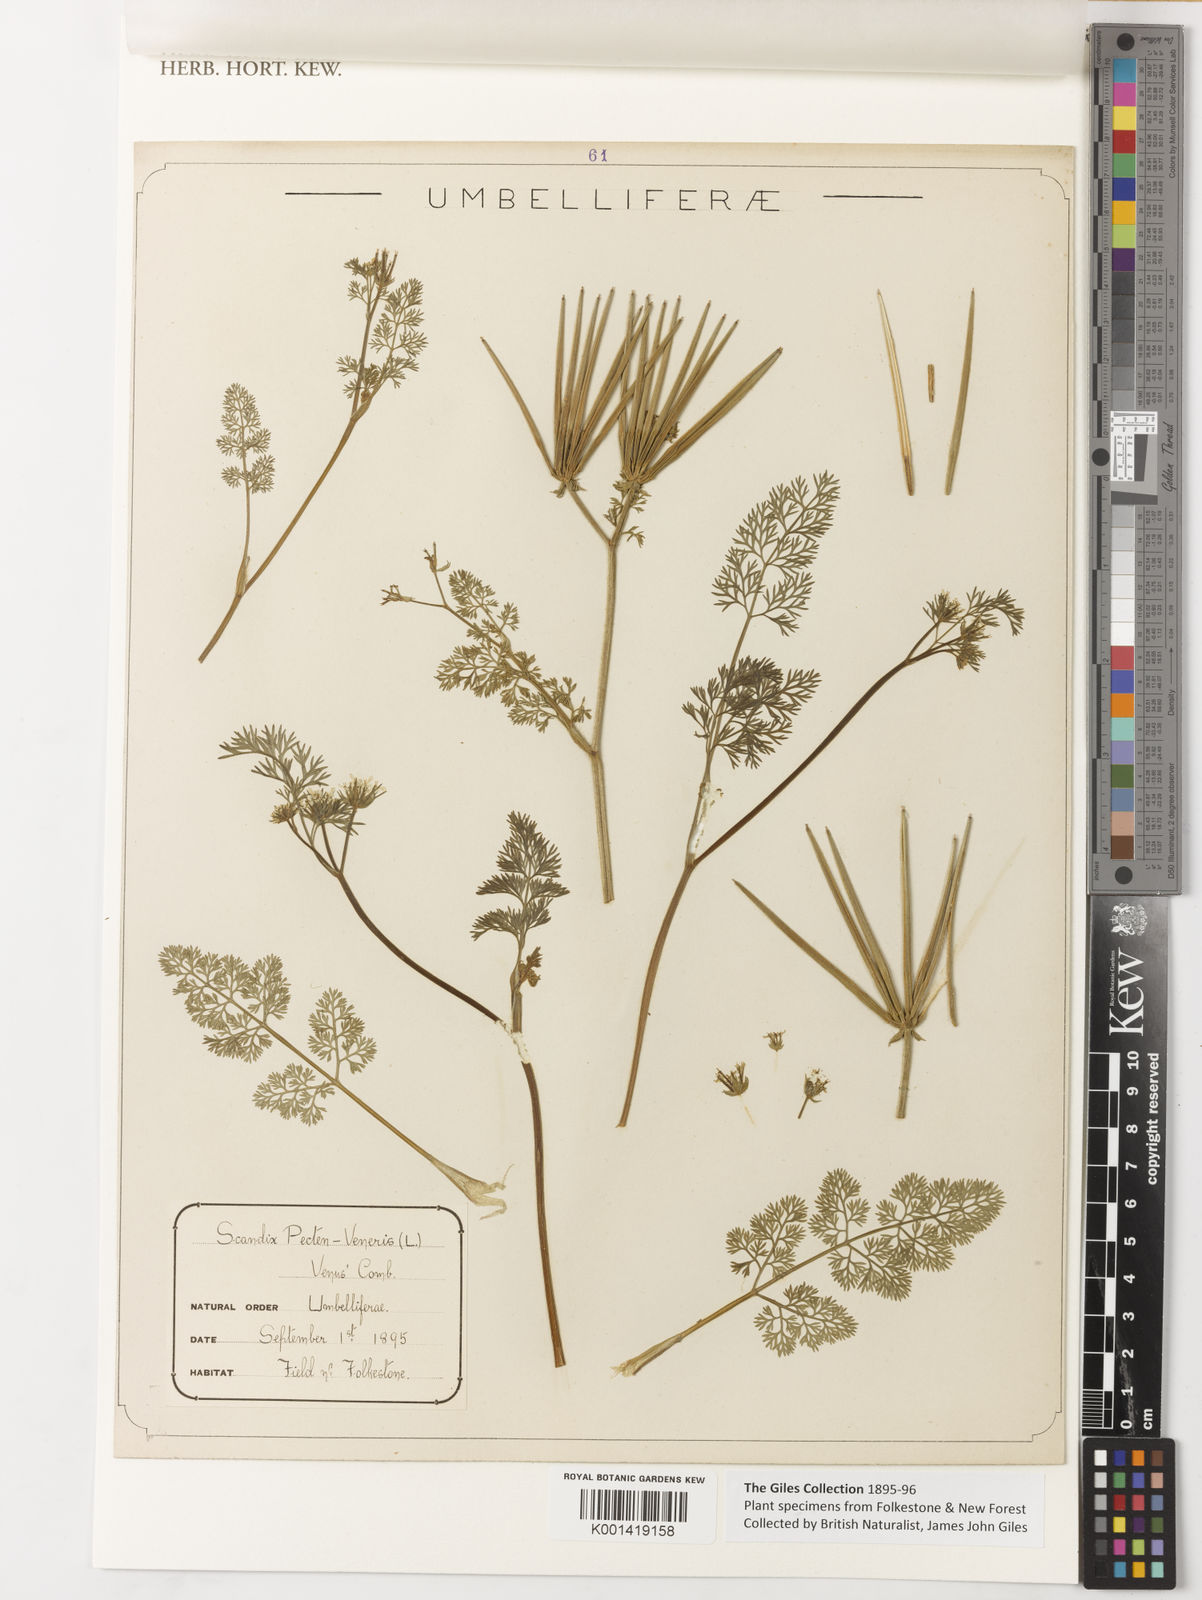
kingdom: Plantae
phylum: Tracheophyta
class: Magnoliopsida
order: Apiales
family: Apiaceae
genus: Scandix
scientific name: Scandix pecten-veneris
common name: Shepherd's-needle
